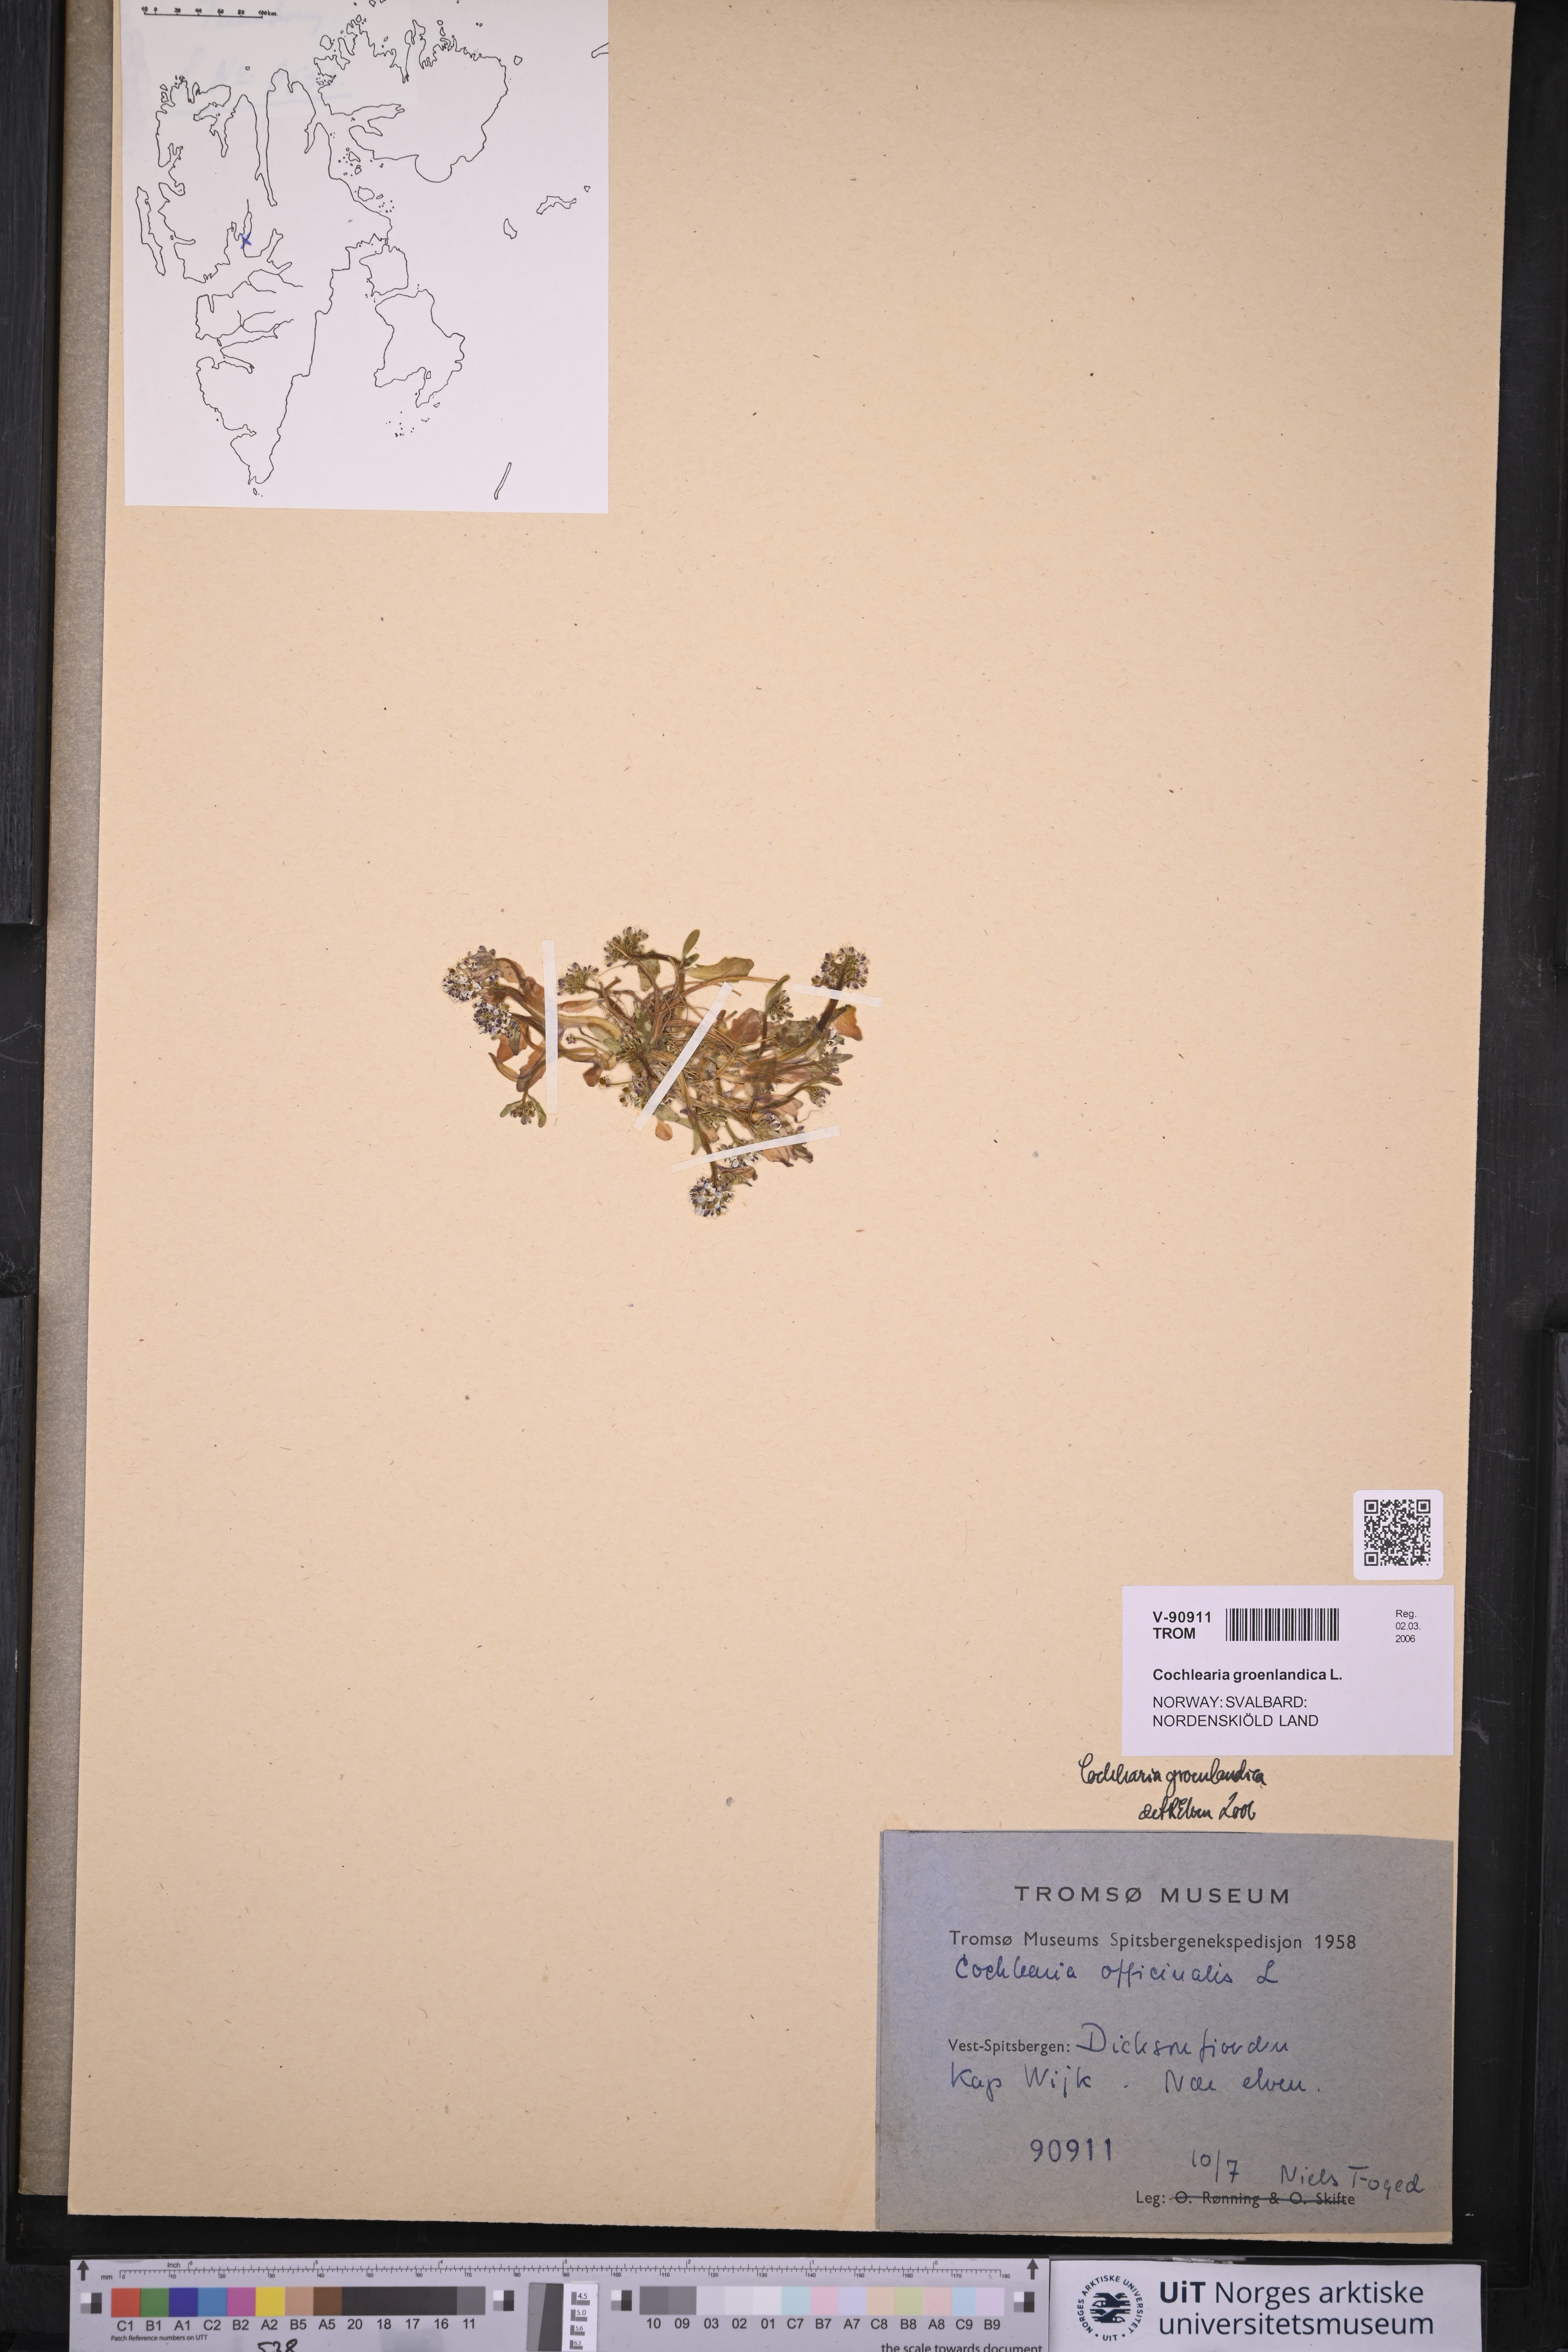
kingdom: Plantae
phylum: Tracheophyta
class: Magnoliopsida
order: Brassicales
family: Brassicaceae
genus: Cochlearia
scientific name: Cochlearia groenlandica
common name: Danish scurvygrass
